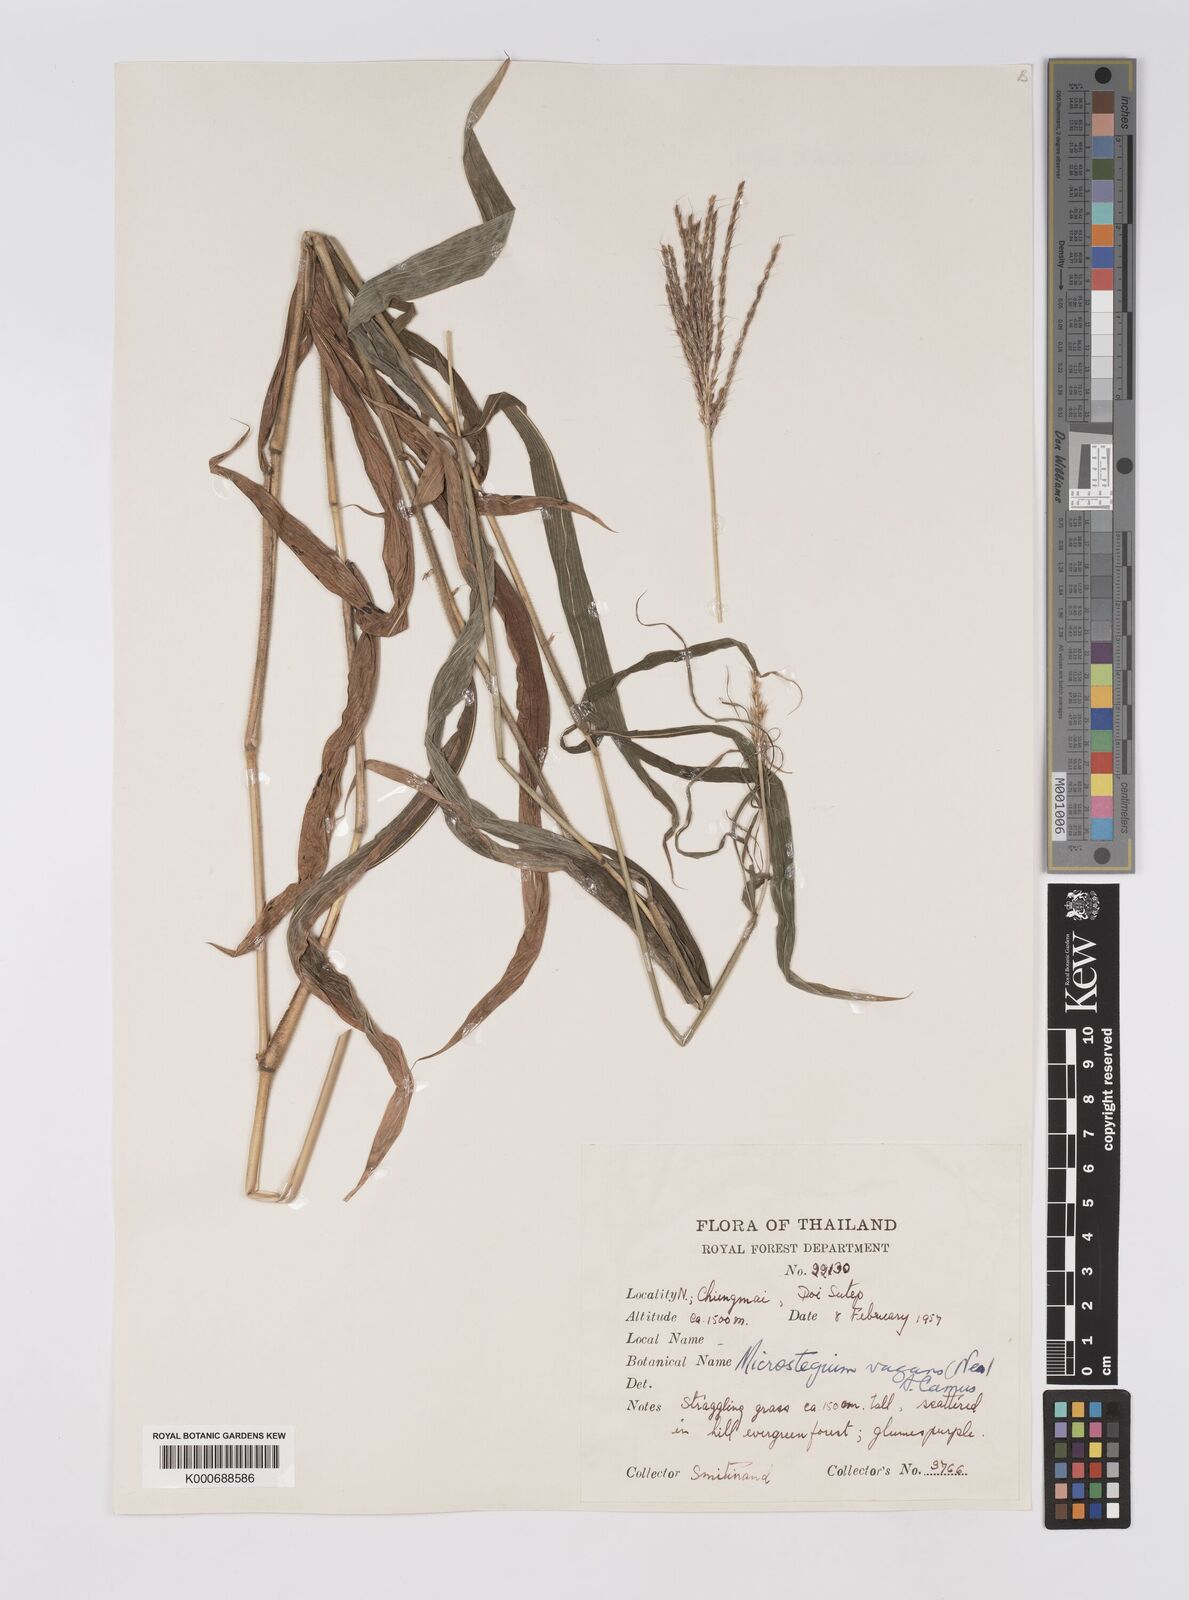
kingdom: Plantae
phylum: Tracheophyta
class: Liliopsida
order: Poales
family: Poaceae
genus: Microstegium
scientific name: Microstegium fasciculatum
